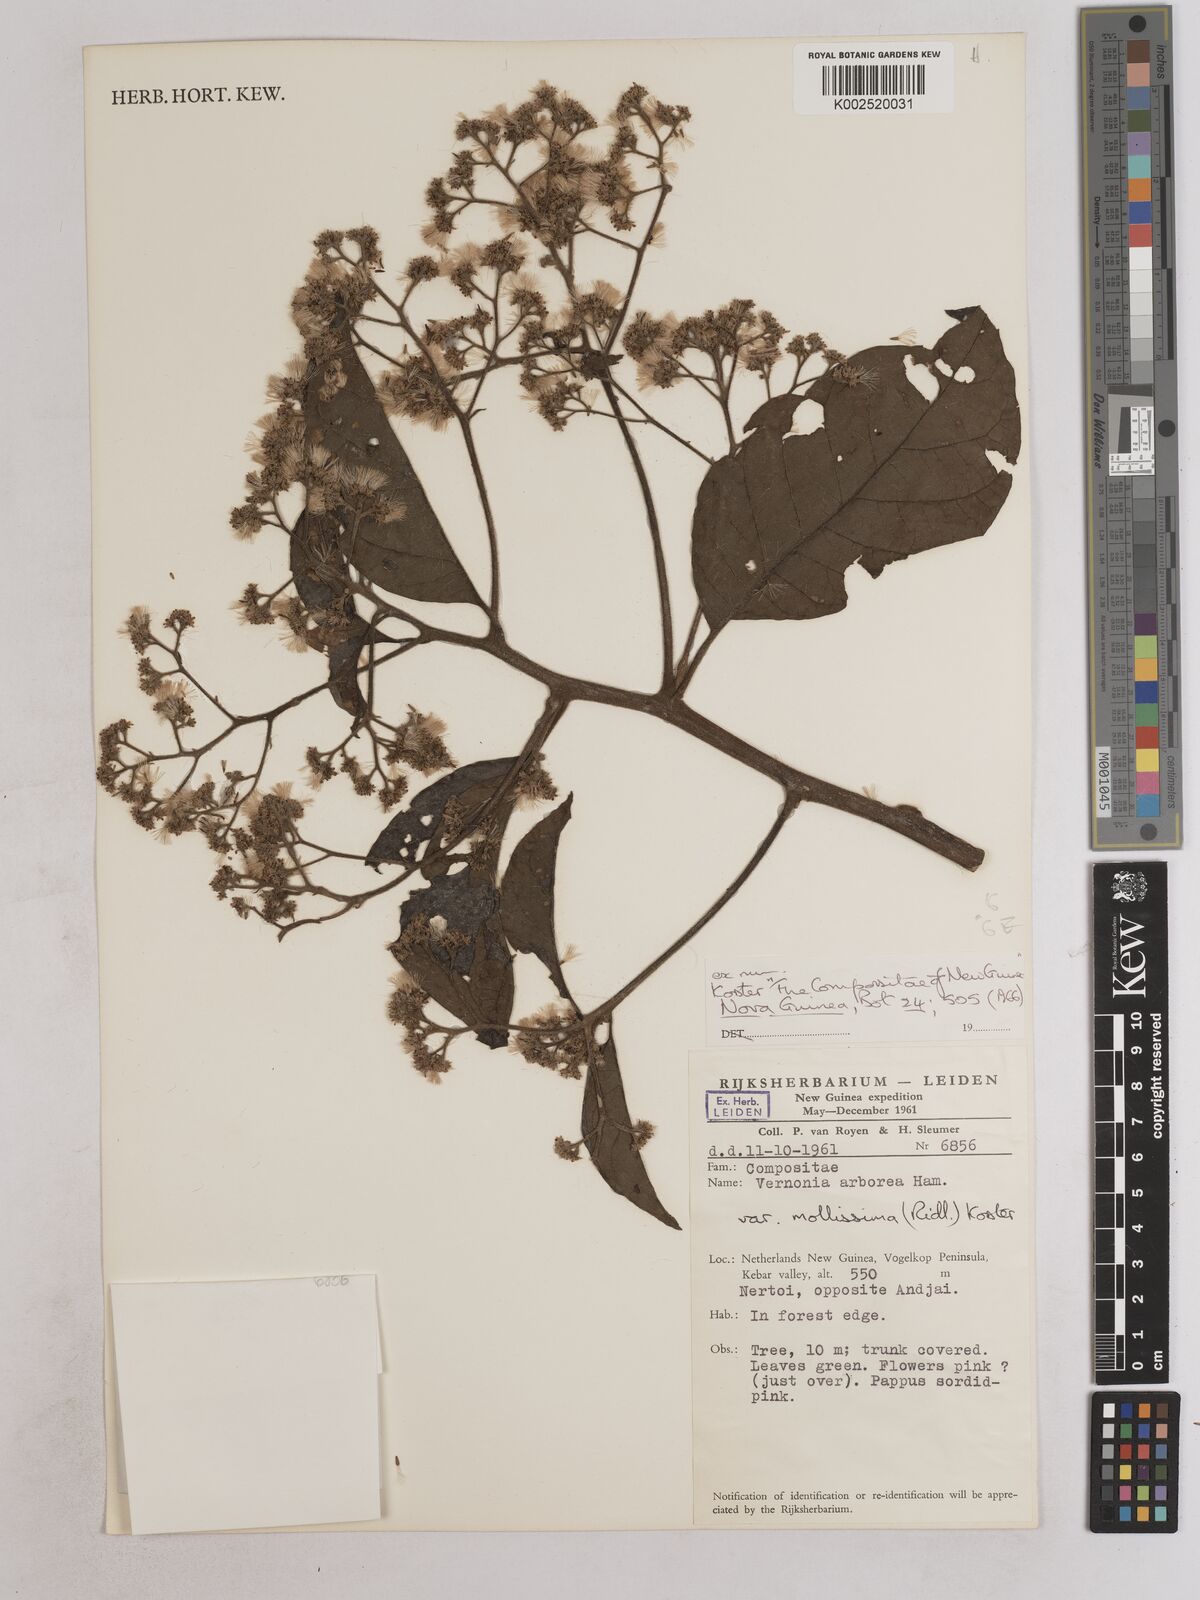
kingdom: Plantae
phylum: Tracheophyta
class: Magnoliopsida
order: Asterales
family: Asteraceae
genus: Strobocalyx
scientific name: Strobocalyx arborea
